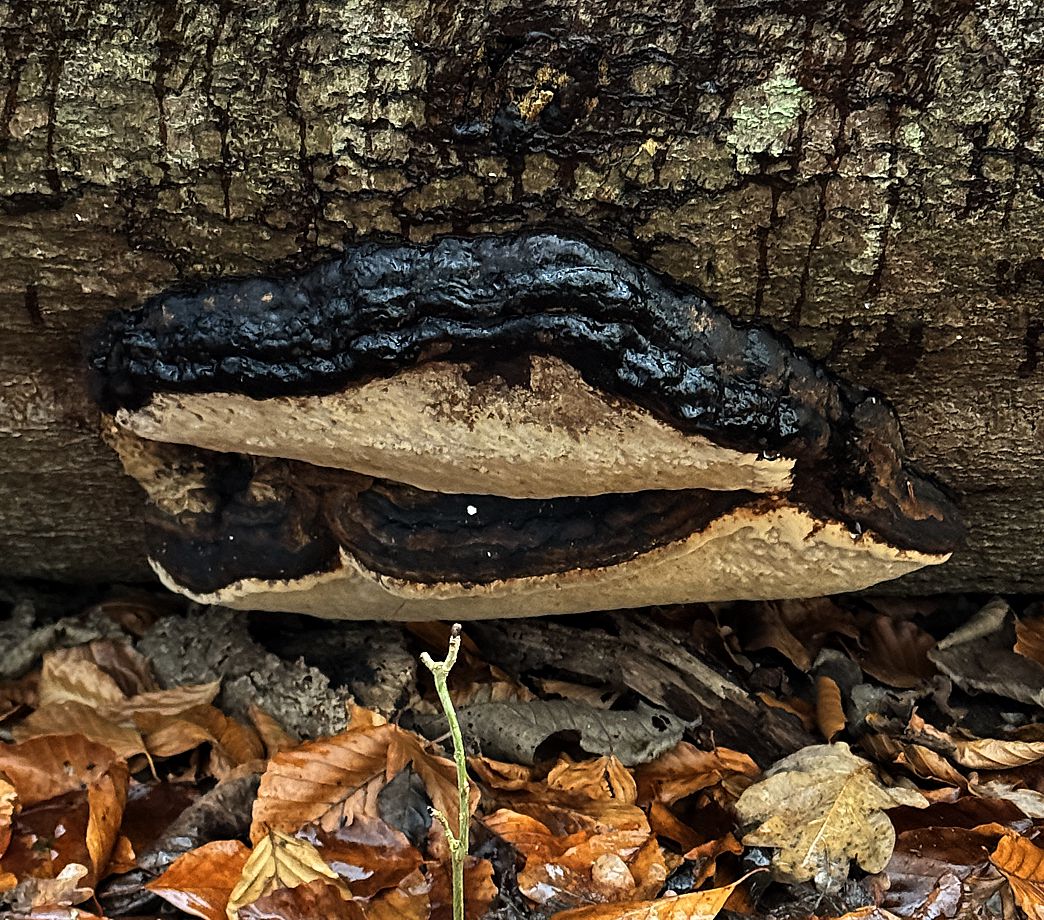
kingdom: Fungi
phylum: Basidiomycota
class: Agaricomycetes
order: Polyporales
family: Ischnodermataceae
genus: Ischnoderma
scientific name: Ischnoderma resinosum
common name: løv-tjæreporesvamp
